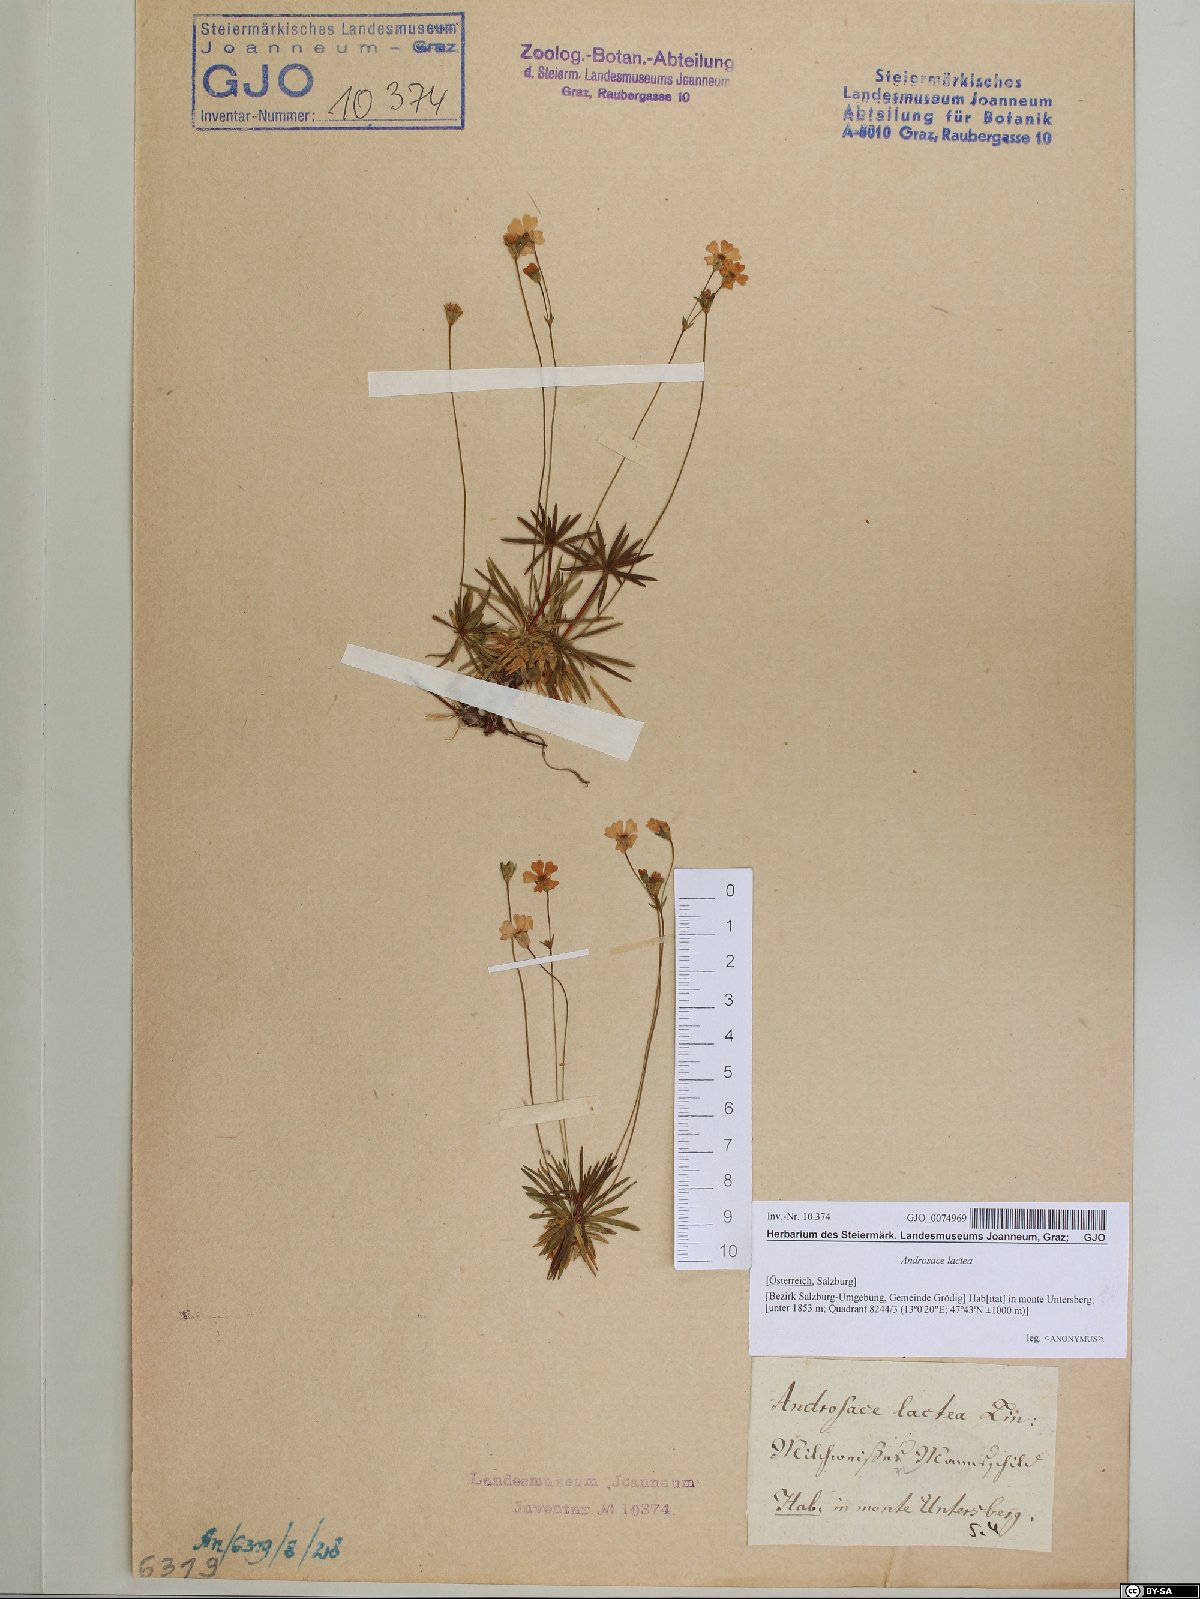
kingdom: Plantae
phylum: Tracheophyta
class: Magnoliopsida
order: Ericales
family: Primulaceae
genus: Androsace
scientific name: Androsace lactea
